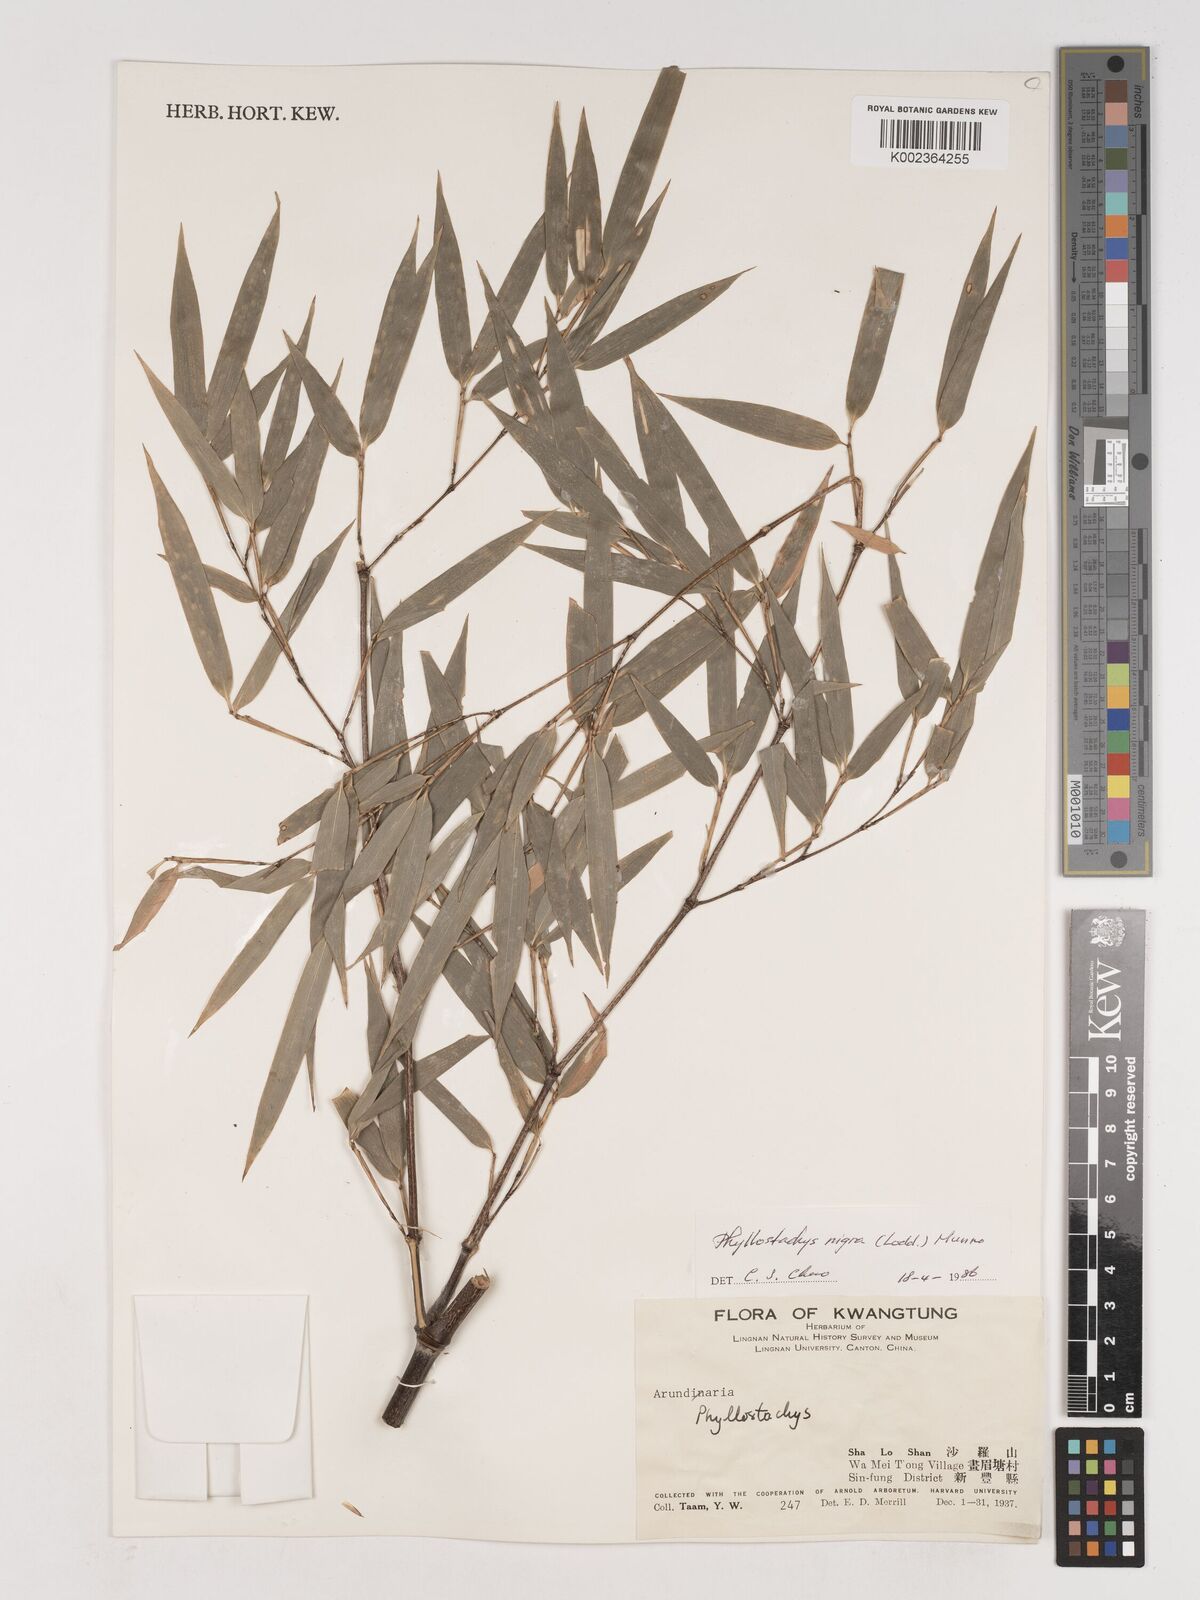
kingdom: Plantae
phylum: Tracheophyta
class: Liliopsida
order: Poales
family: Poaceae
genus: Phyllostachys
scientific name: Phyllostachys nigra
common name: Black bamboo
